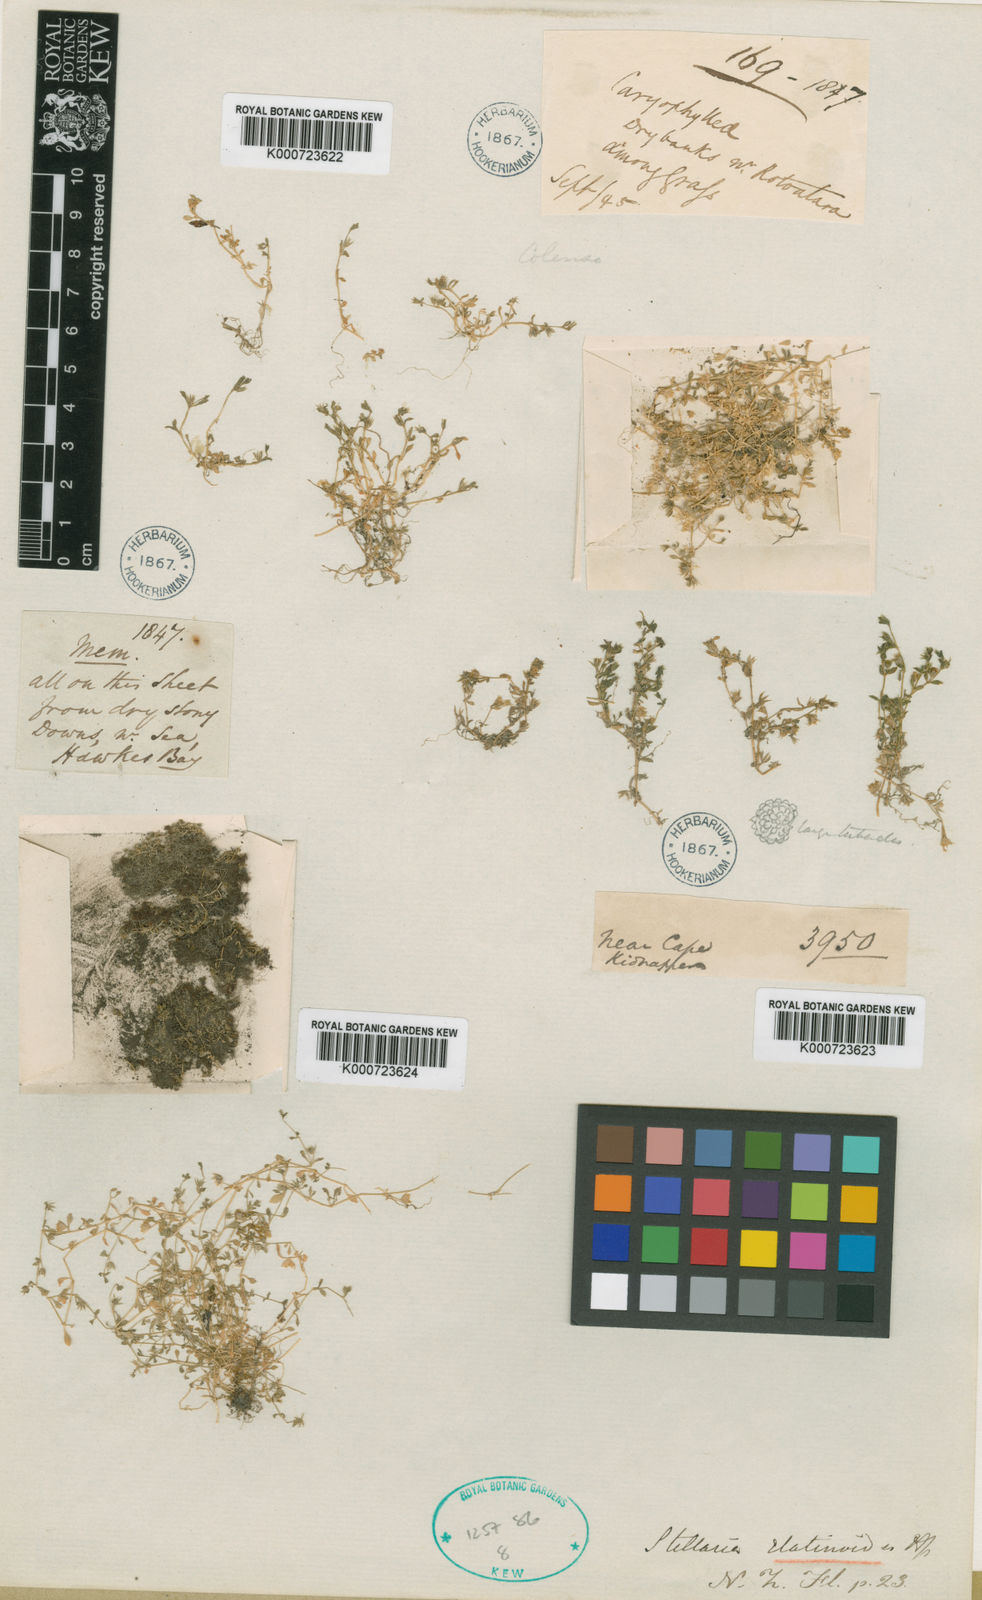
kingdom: Plantae
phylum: Tracheophyta
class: Magnoliopsida
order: Caryophyllales
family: Caryophyllaceae
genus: Stellaria
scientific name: Stellaria elatinoides
